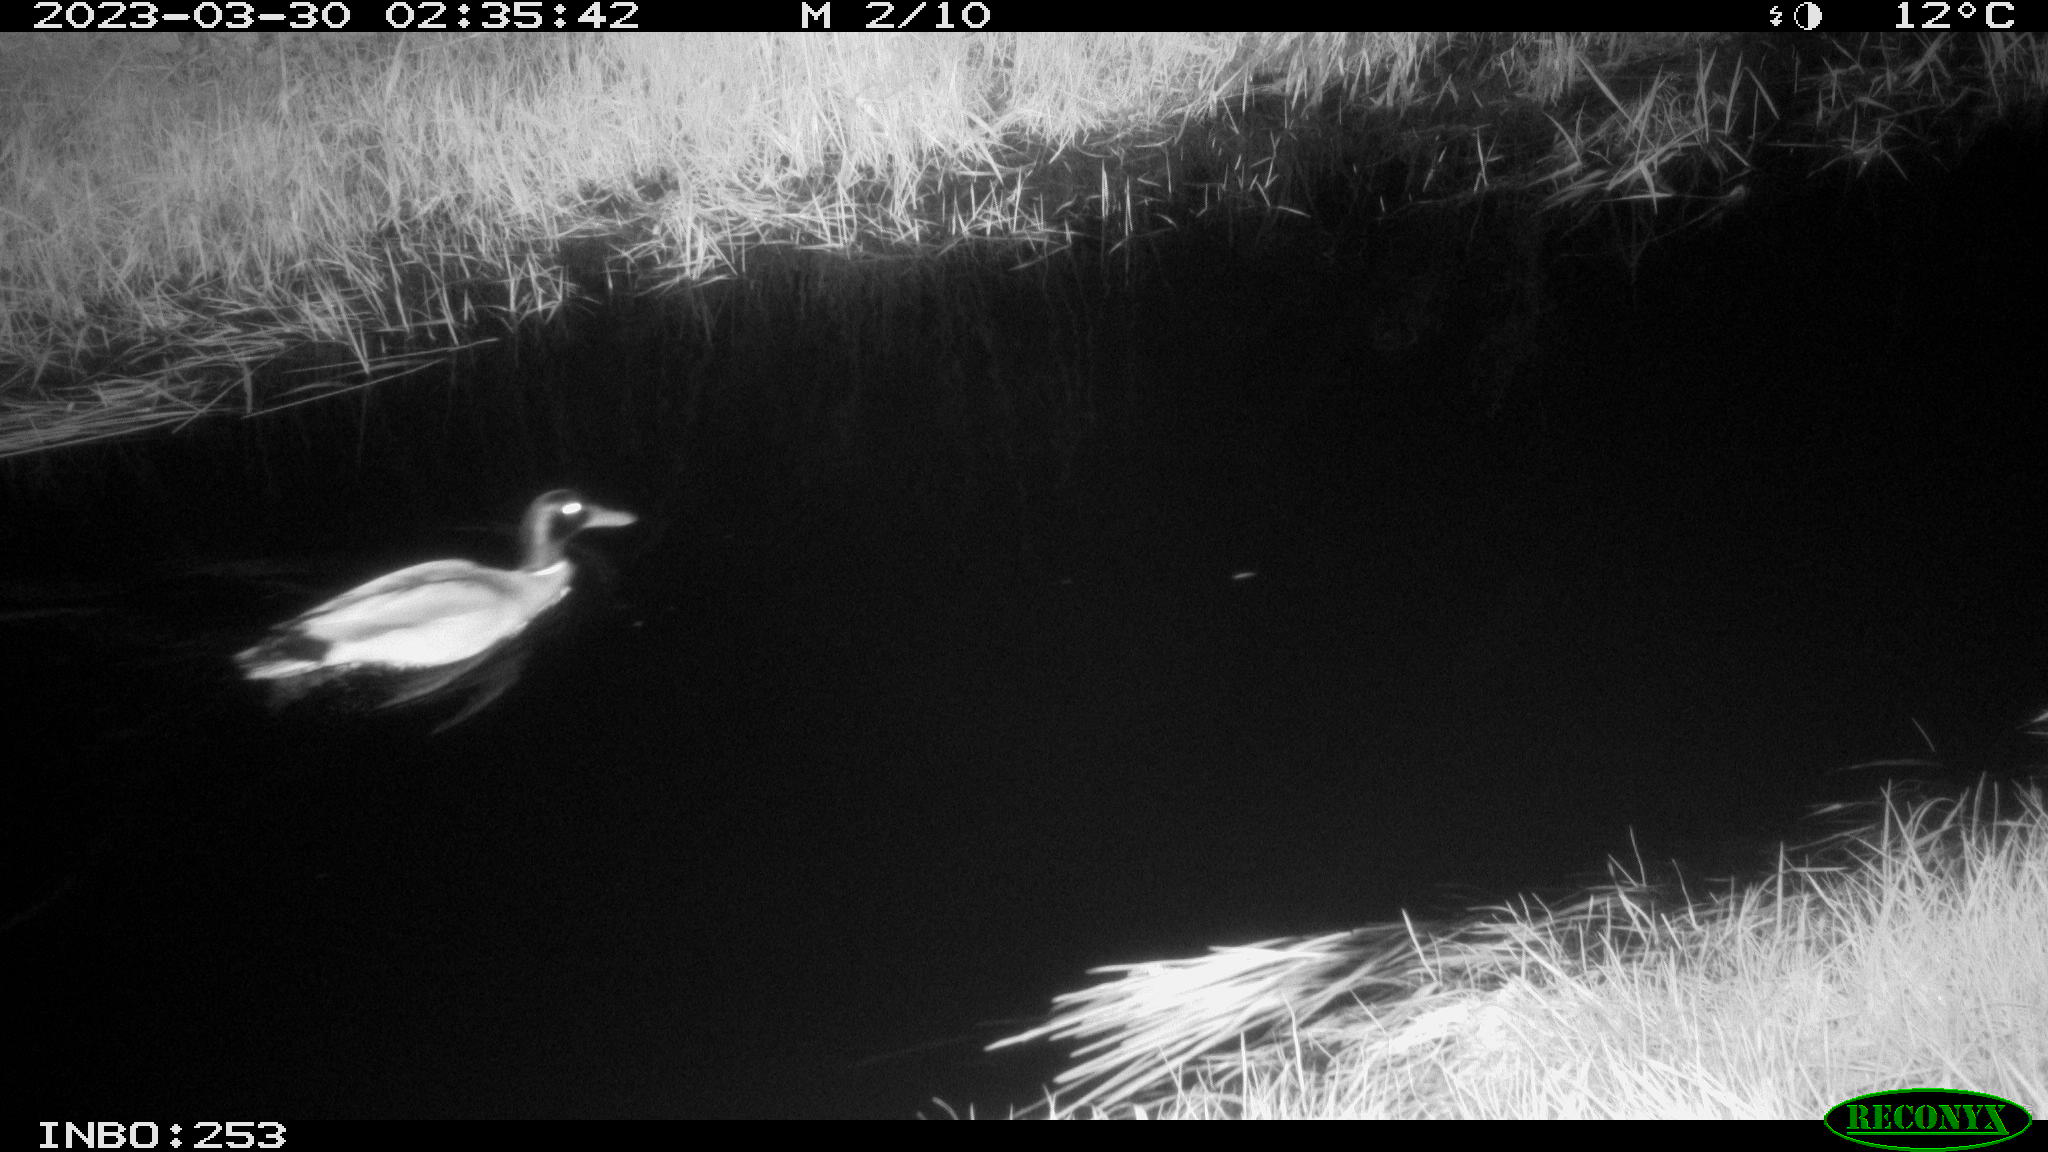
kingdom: Animalia
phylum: Chordata
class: Aves
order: Anseriformes
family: Anatidae
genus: Anas
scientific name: Anas
